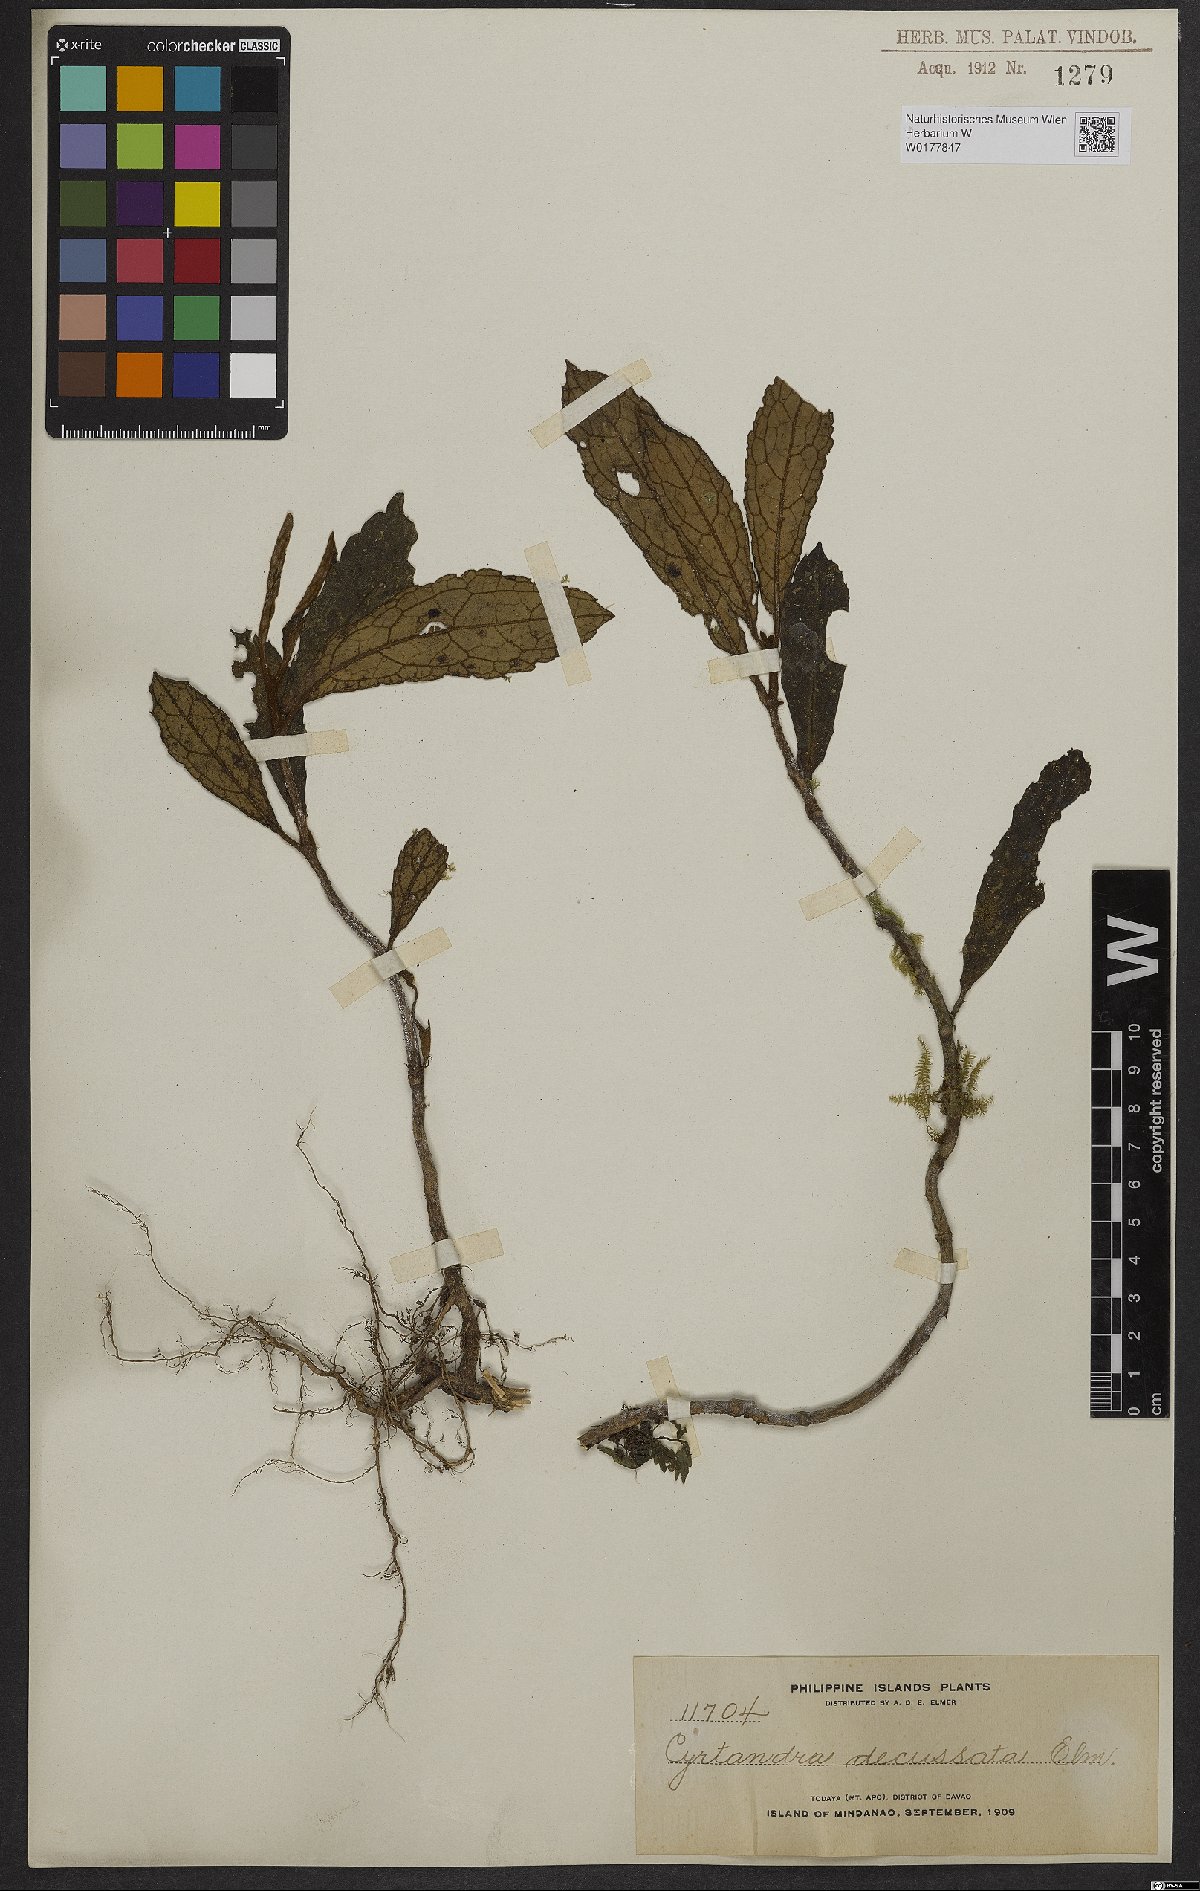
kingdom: Plantae
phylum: Tracheophyta
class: Magnoliopsida
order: Lamiales
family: Gesneriaceae
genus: Cyrtandra
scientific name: Cyrtandra decussata
